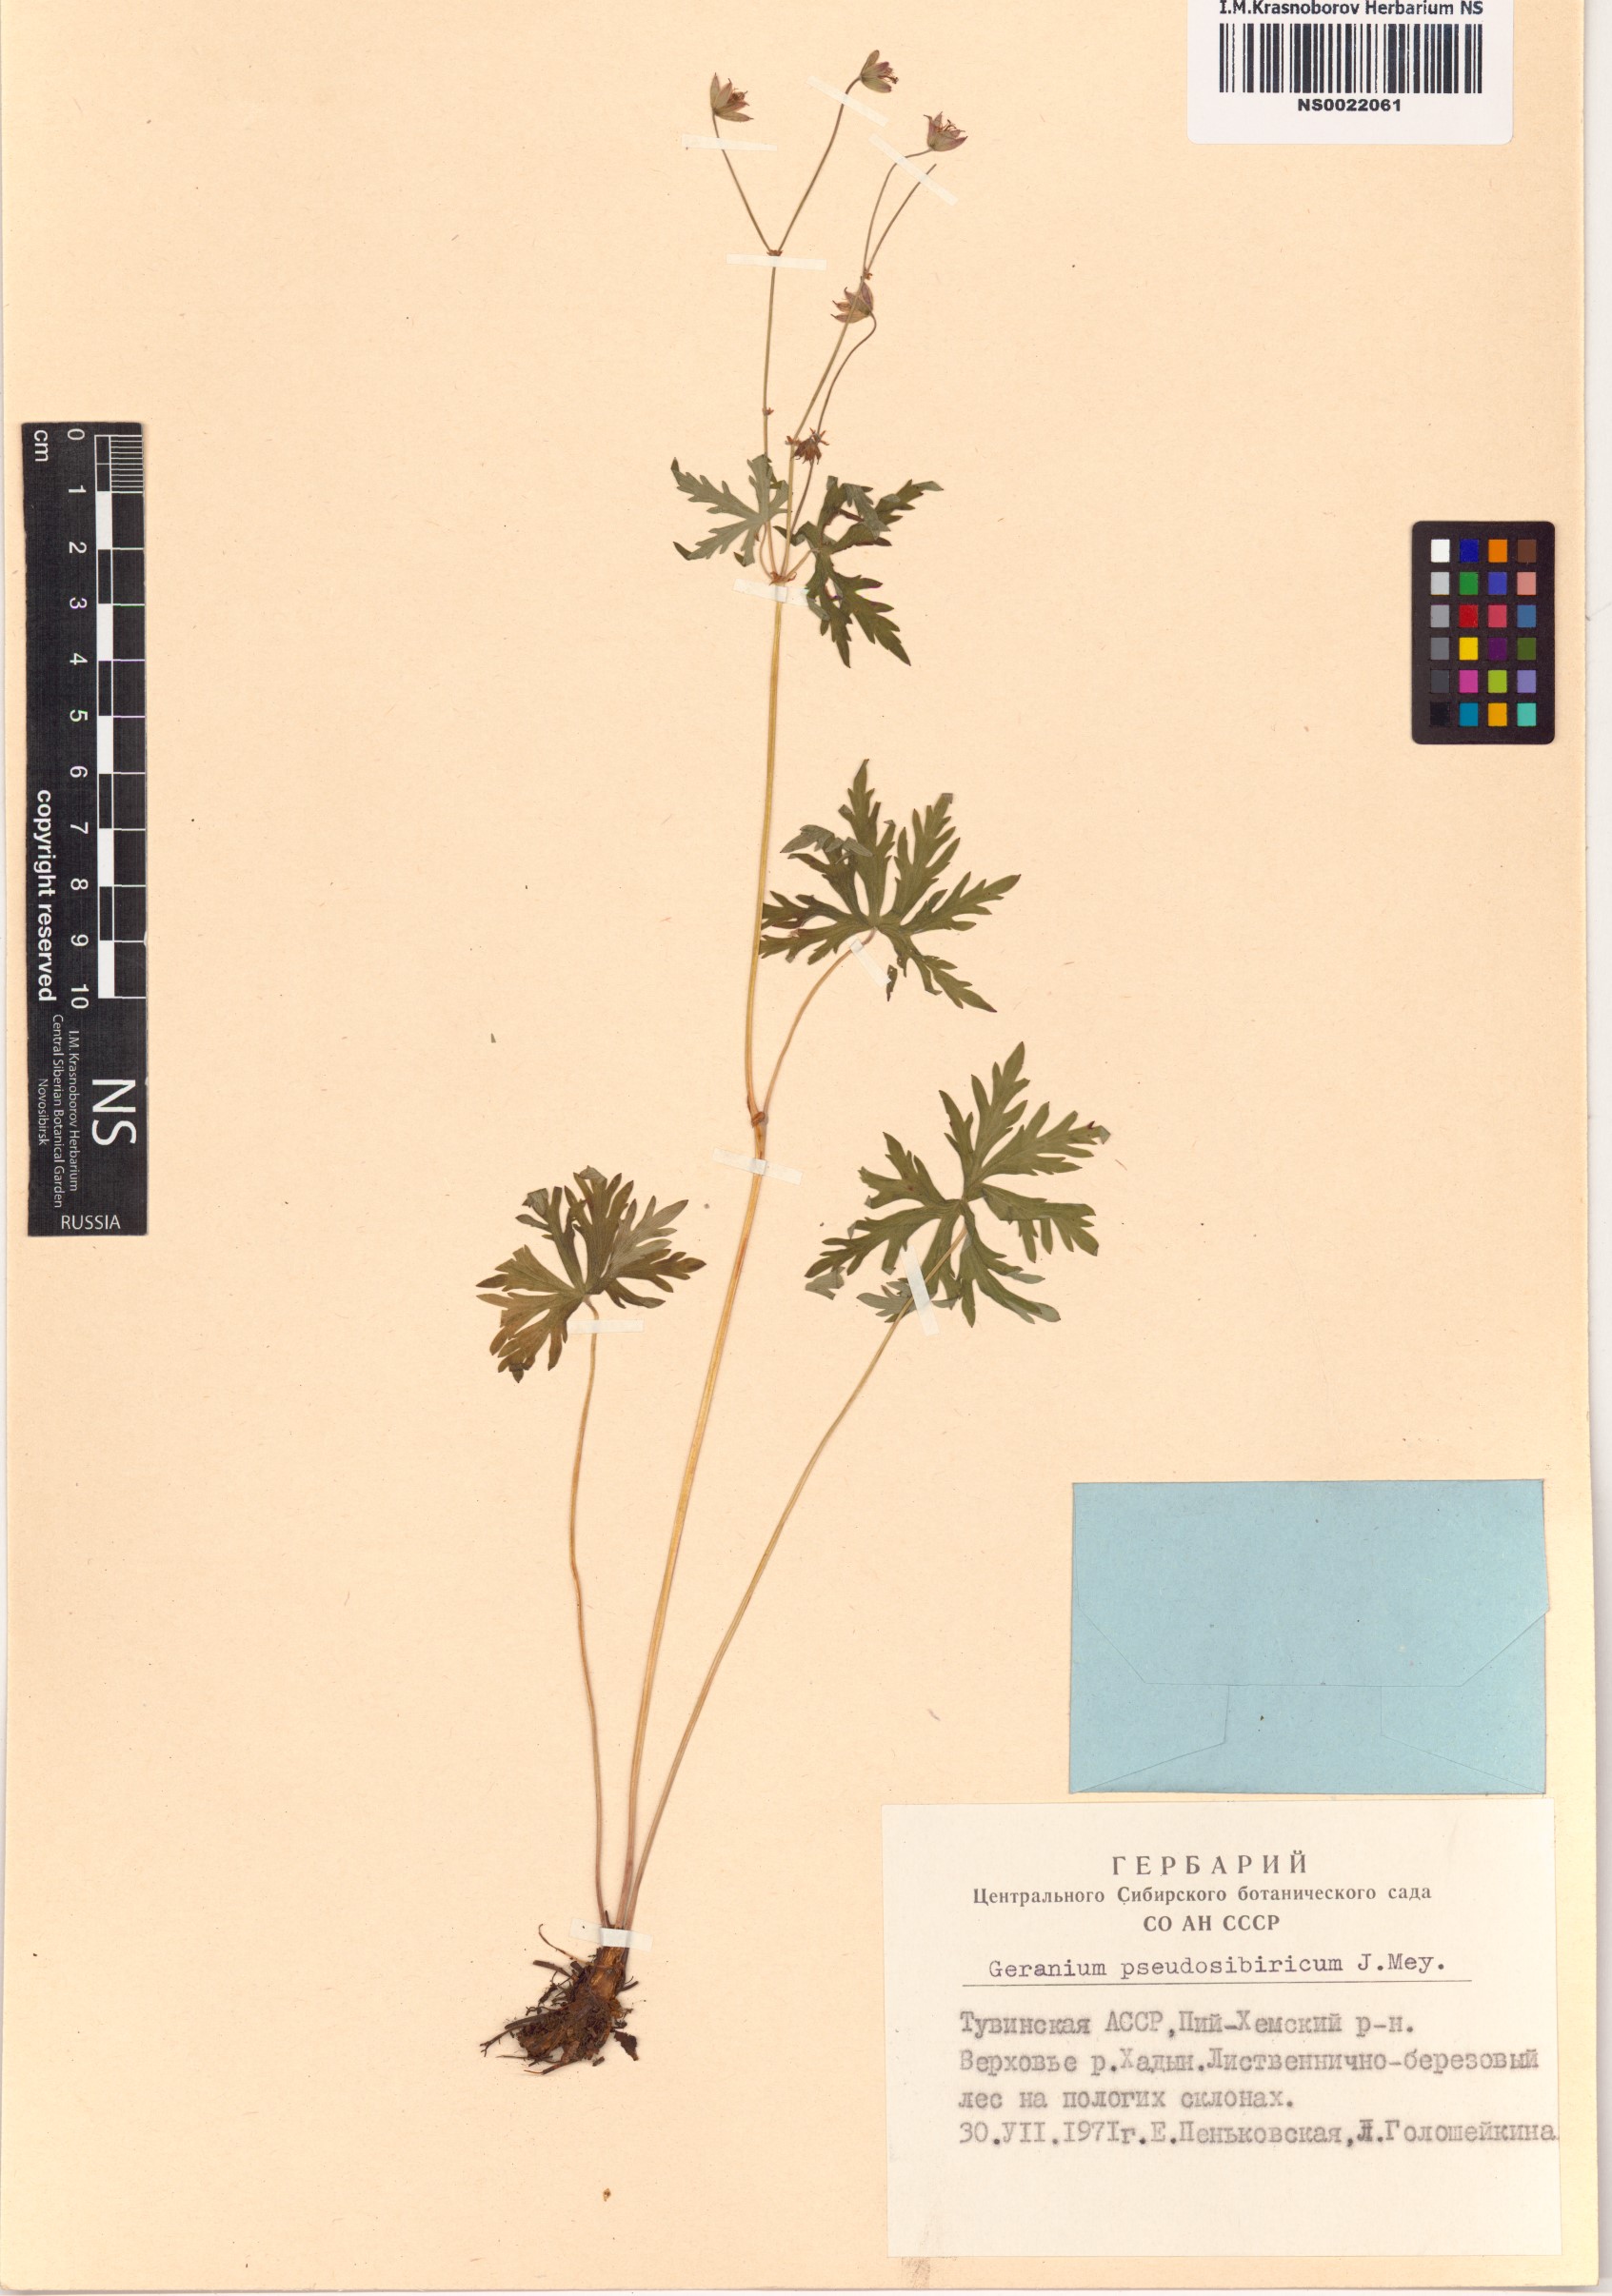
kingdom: Plantae
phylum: Tracheophyta
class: Magnoliopsida
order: Geraniales
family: Geraniaceae
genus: Geranium
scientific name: Geranium pseudosibiricum
